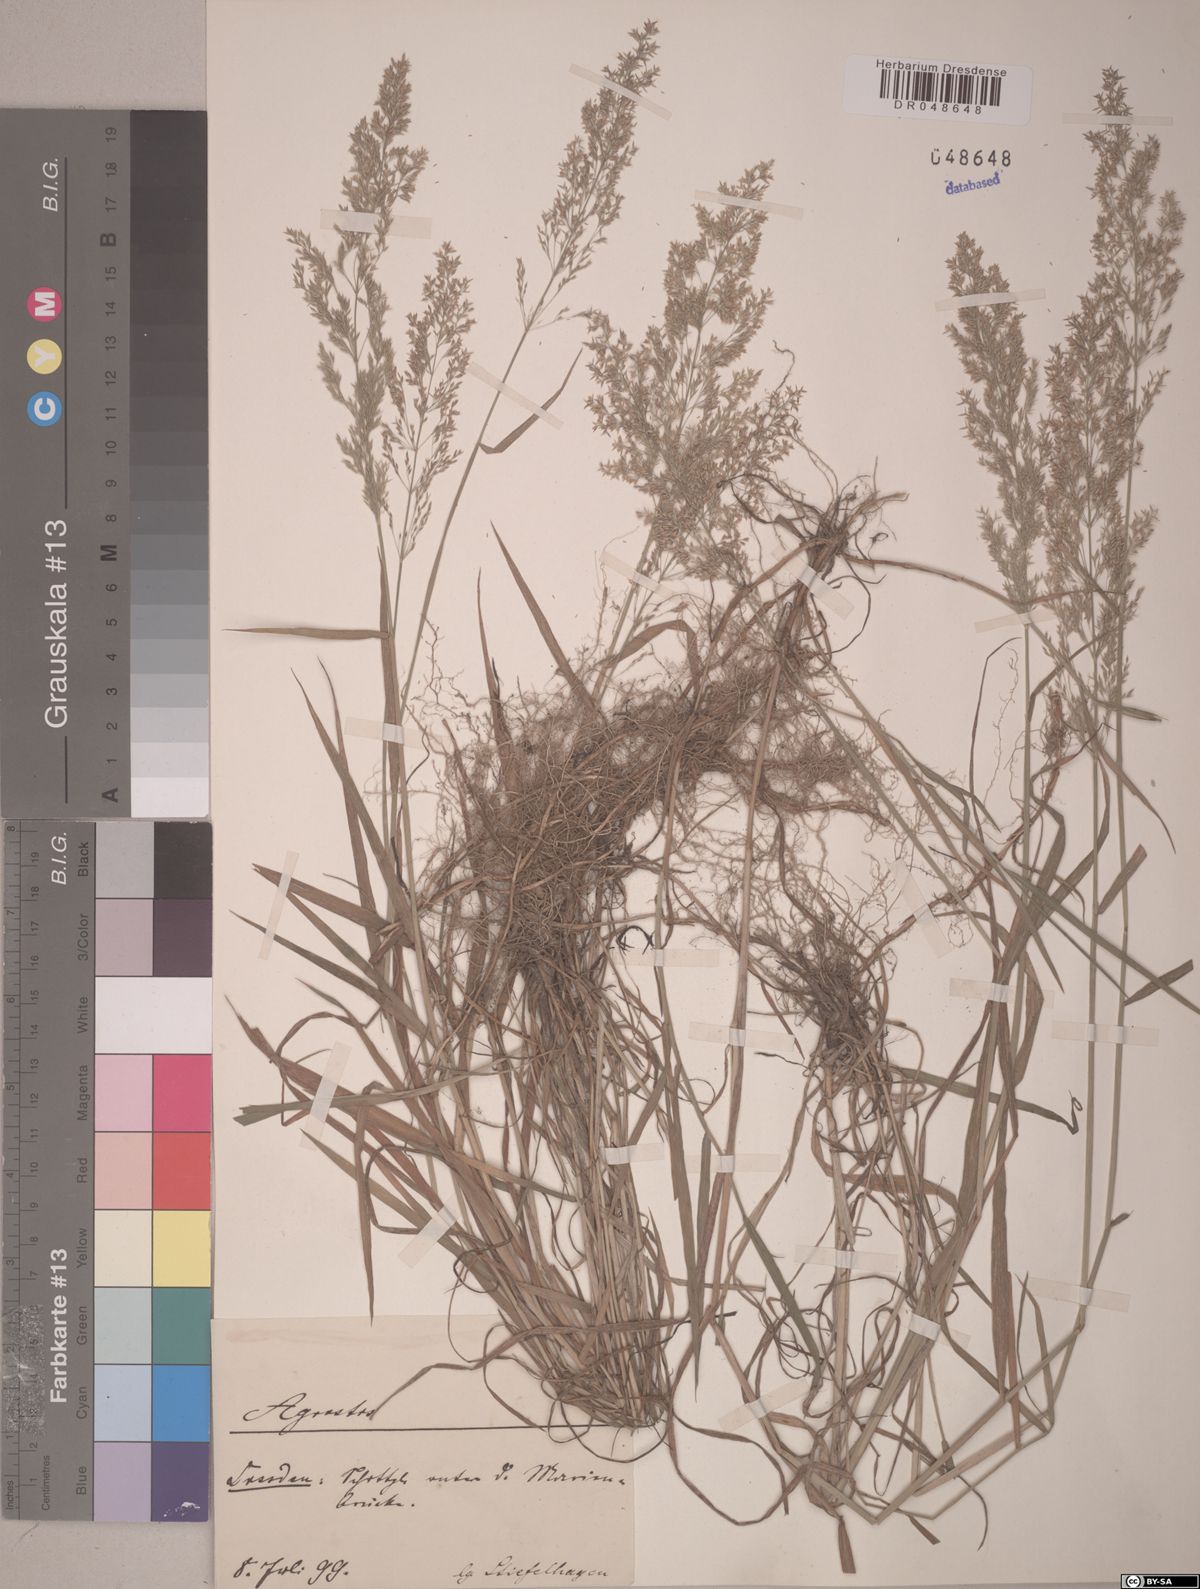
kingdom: Plantae
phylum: Tracheophyta
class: Liliopsida
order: Poales
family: Poaceae
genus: Agrostis
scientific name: Agrostis
